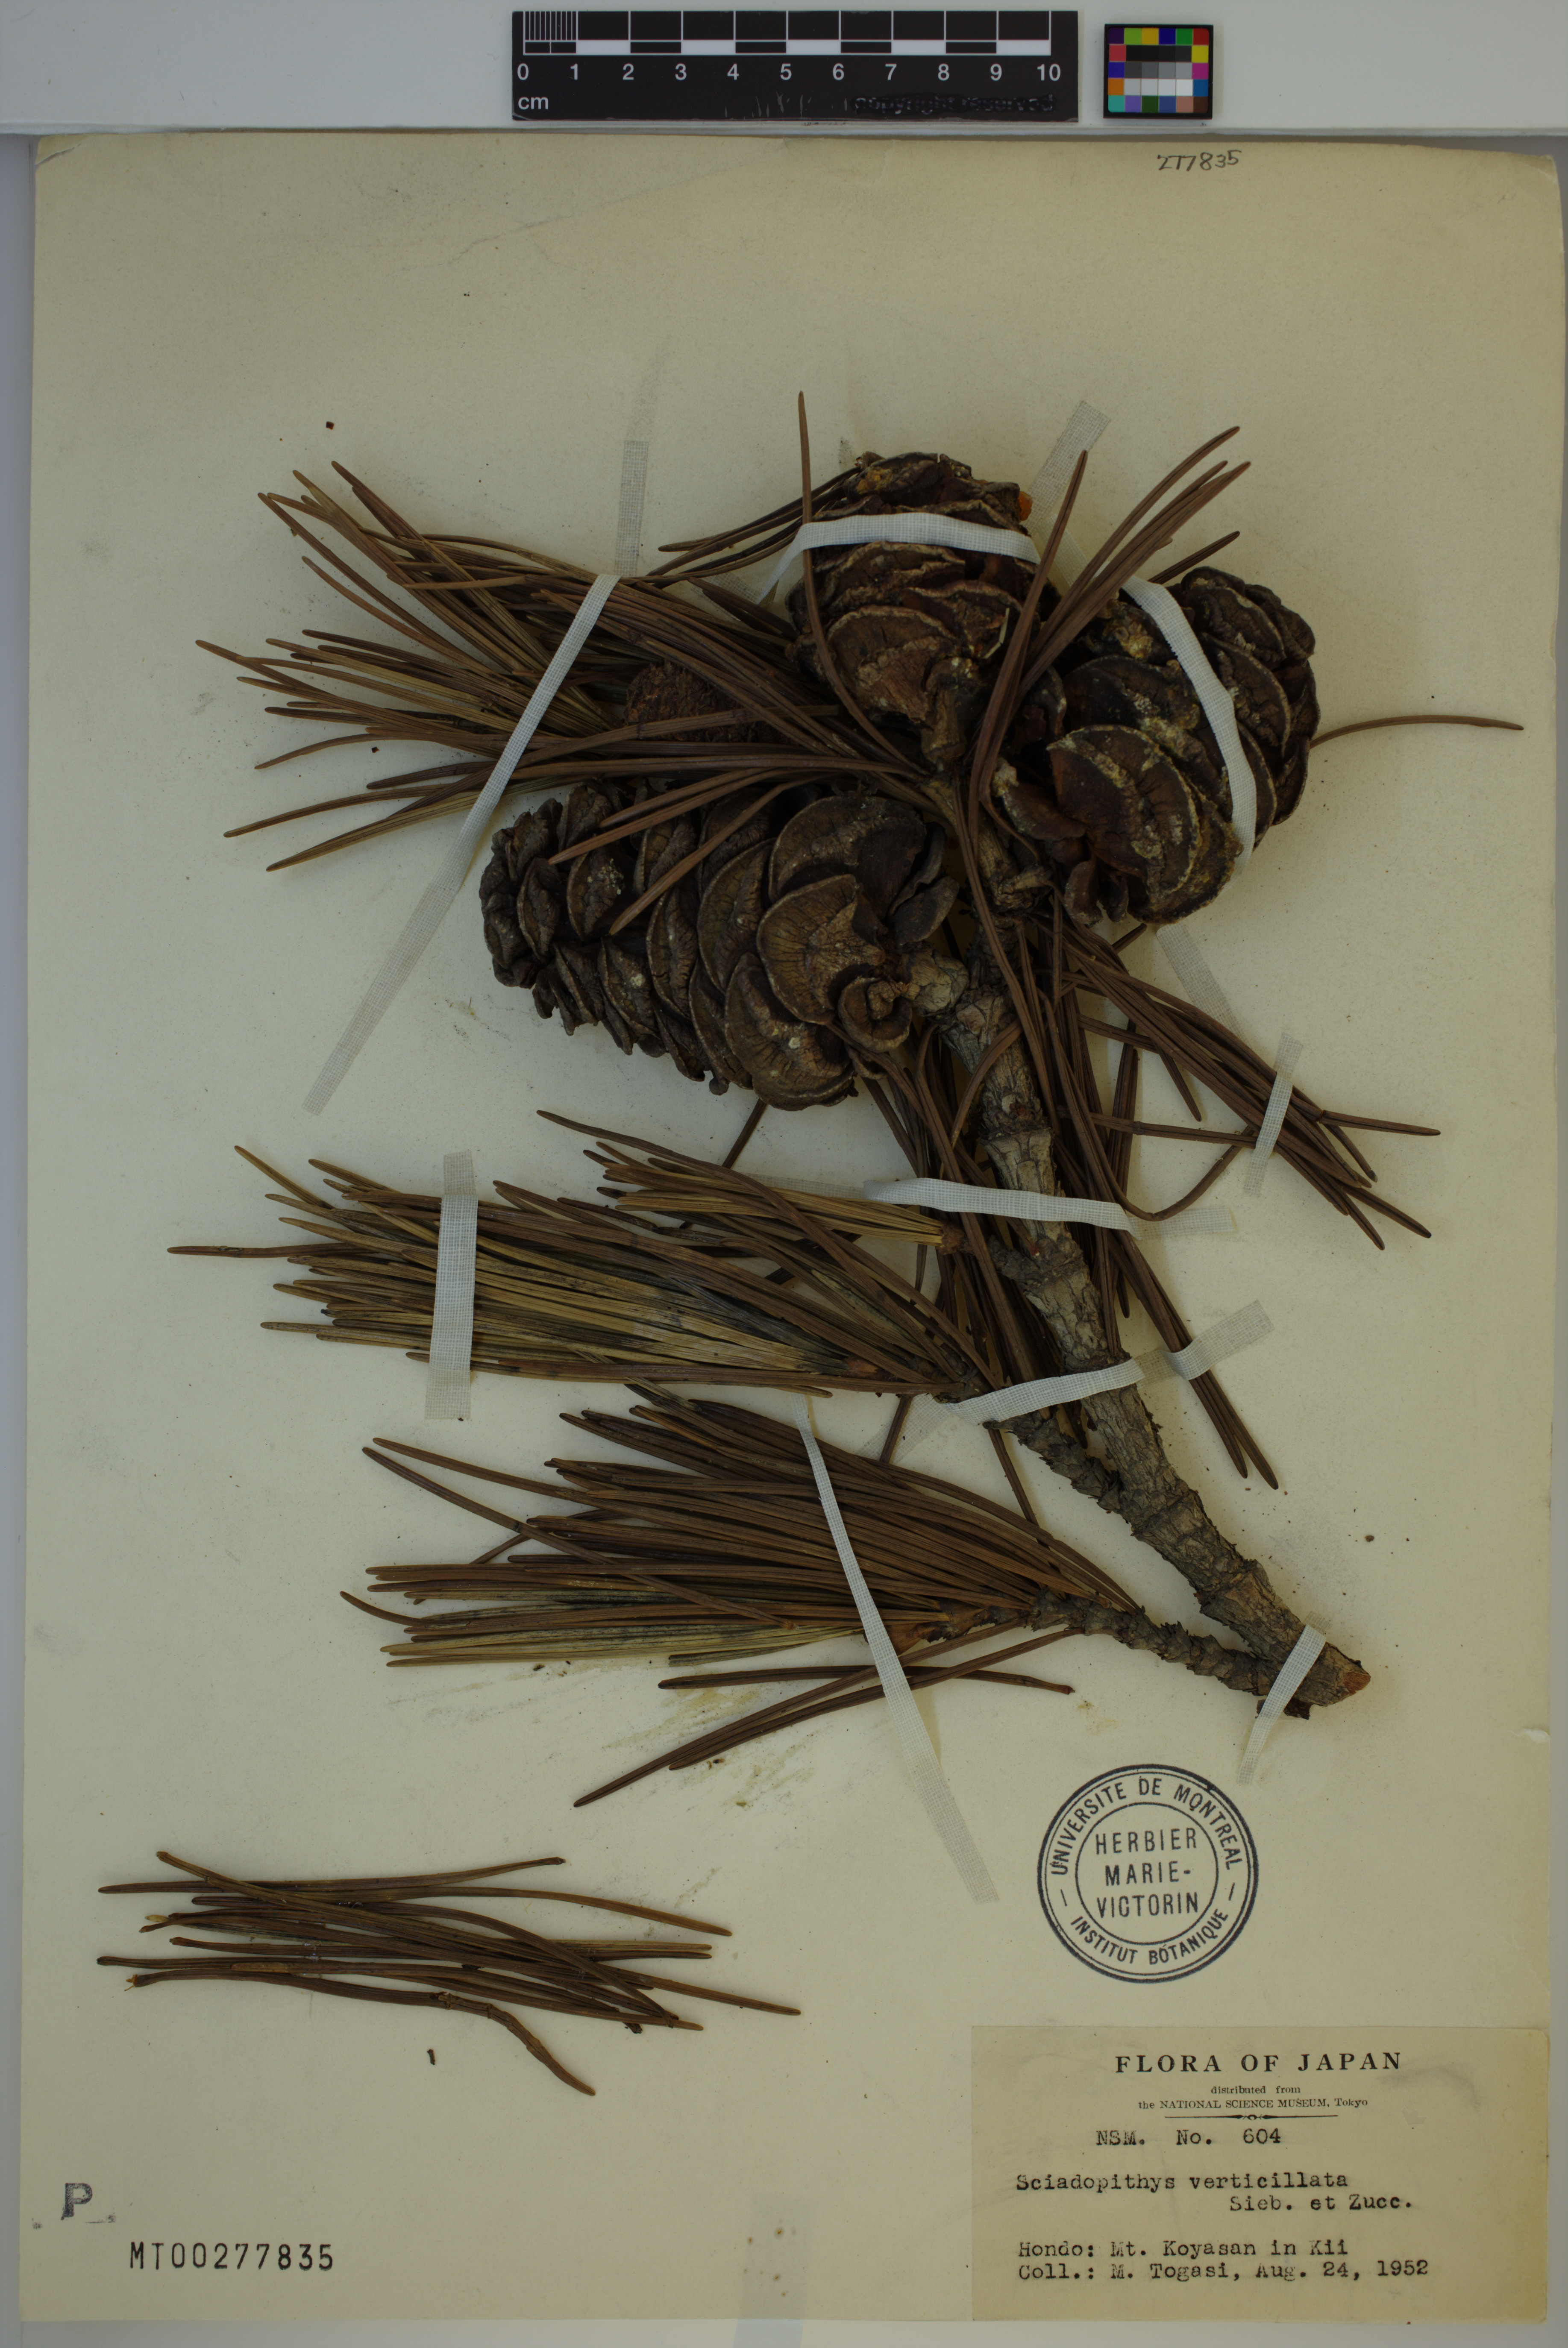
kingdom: Plantae
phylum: Tracheophyta
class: Pinopsida
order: Pinales
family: Sciadopityaceae
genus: Sciadopitys
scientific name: Sciadopitys verticillata
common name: Japanese umbrella pine
